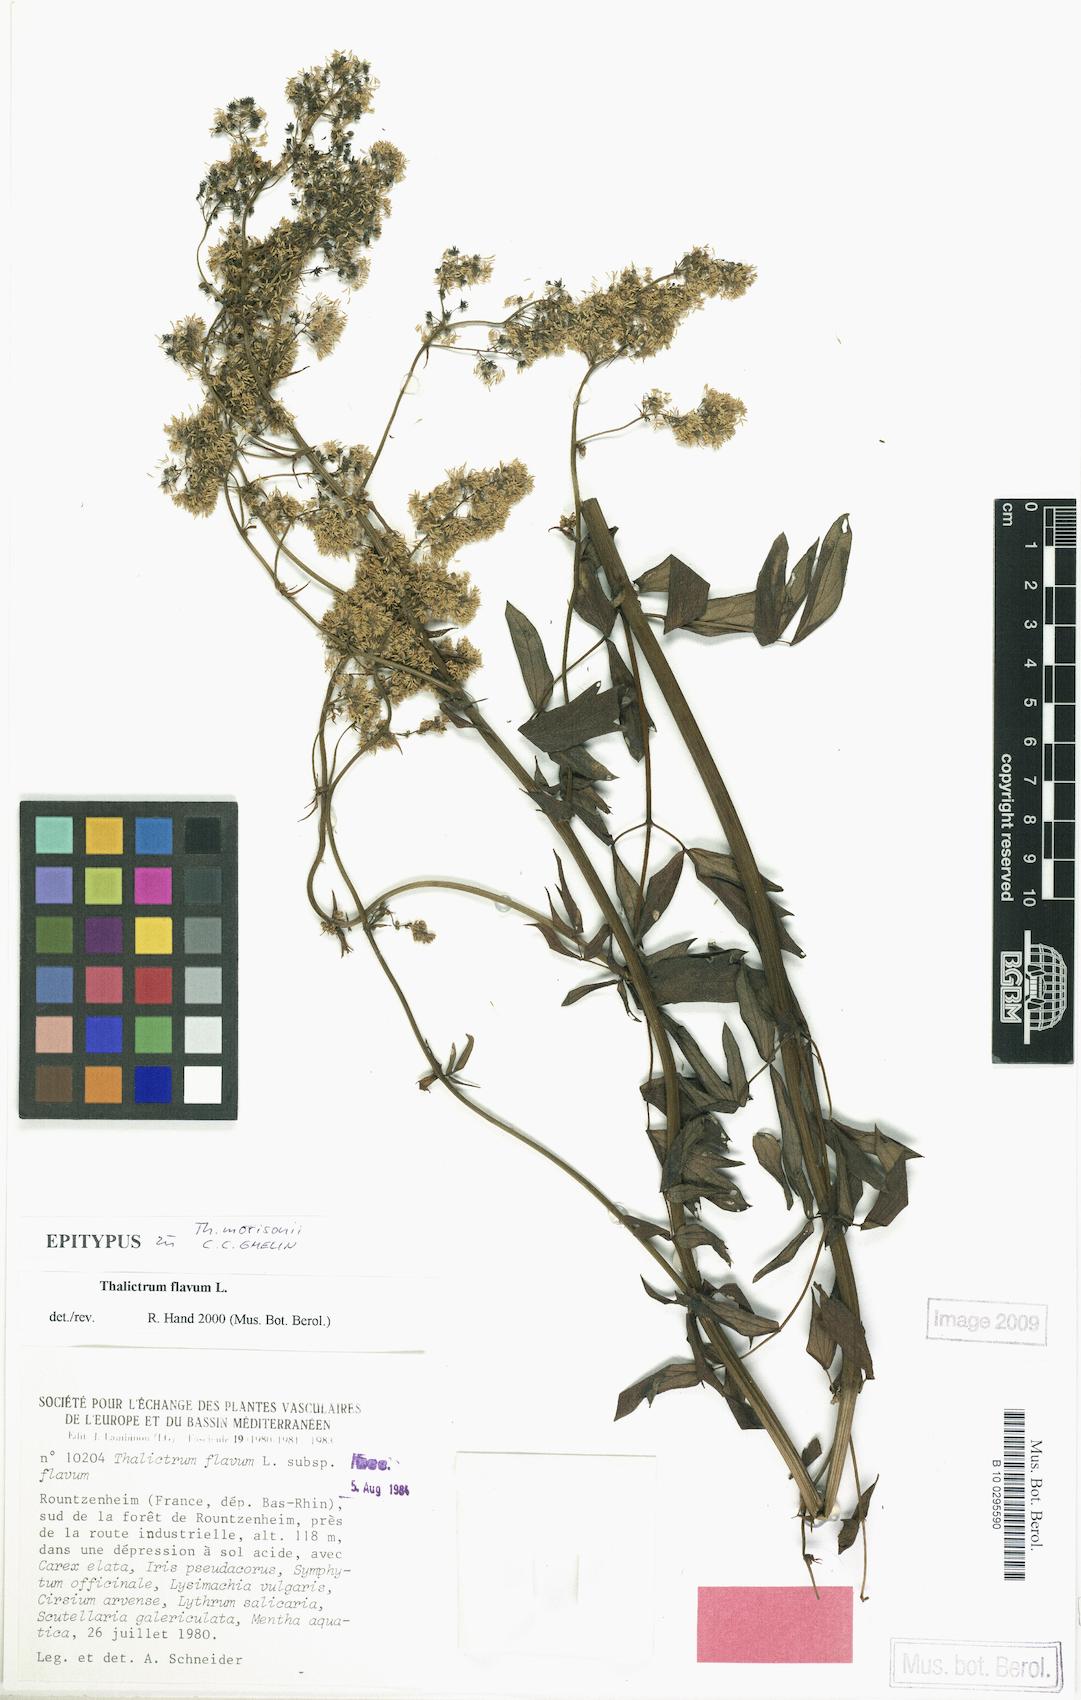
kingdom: Plantae
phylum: Tracheophyta
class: Magnoliopsida
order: Ranunculales
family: Ranunculaceae
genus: Thalictrum
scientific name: Thalictrum flavum
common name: Common meadow-rue
